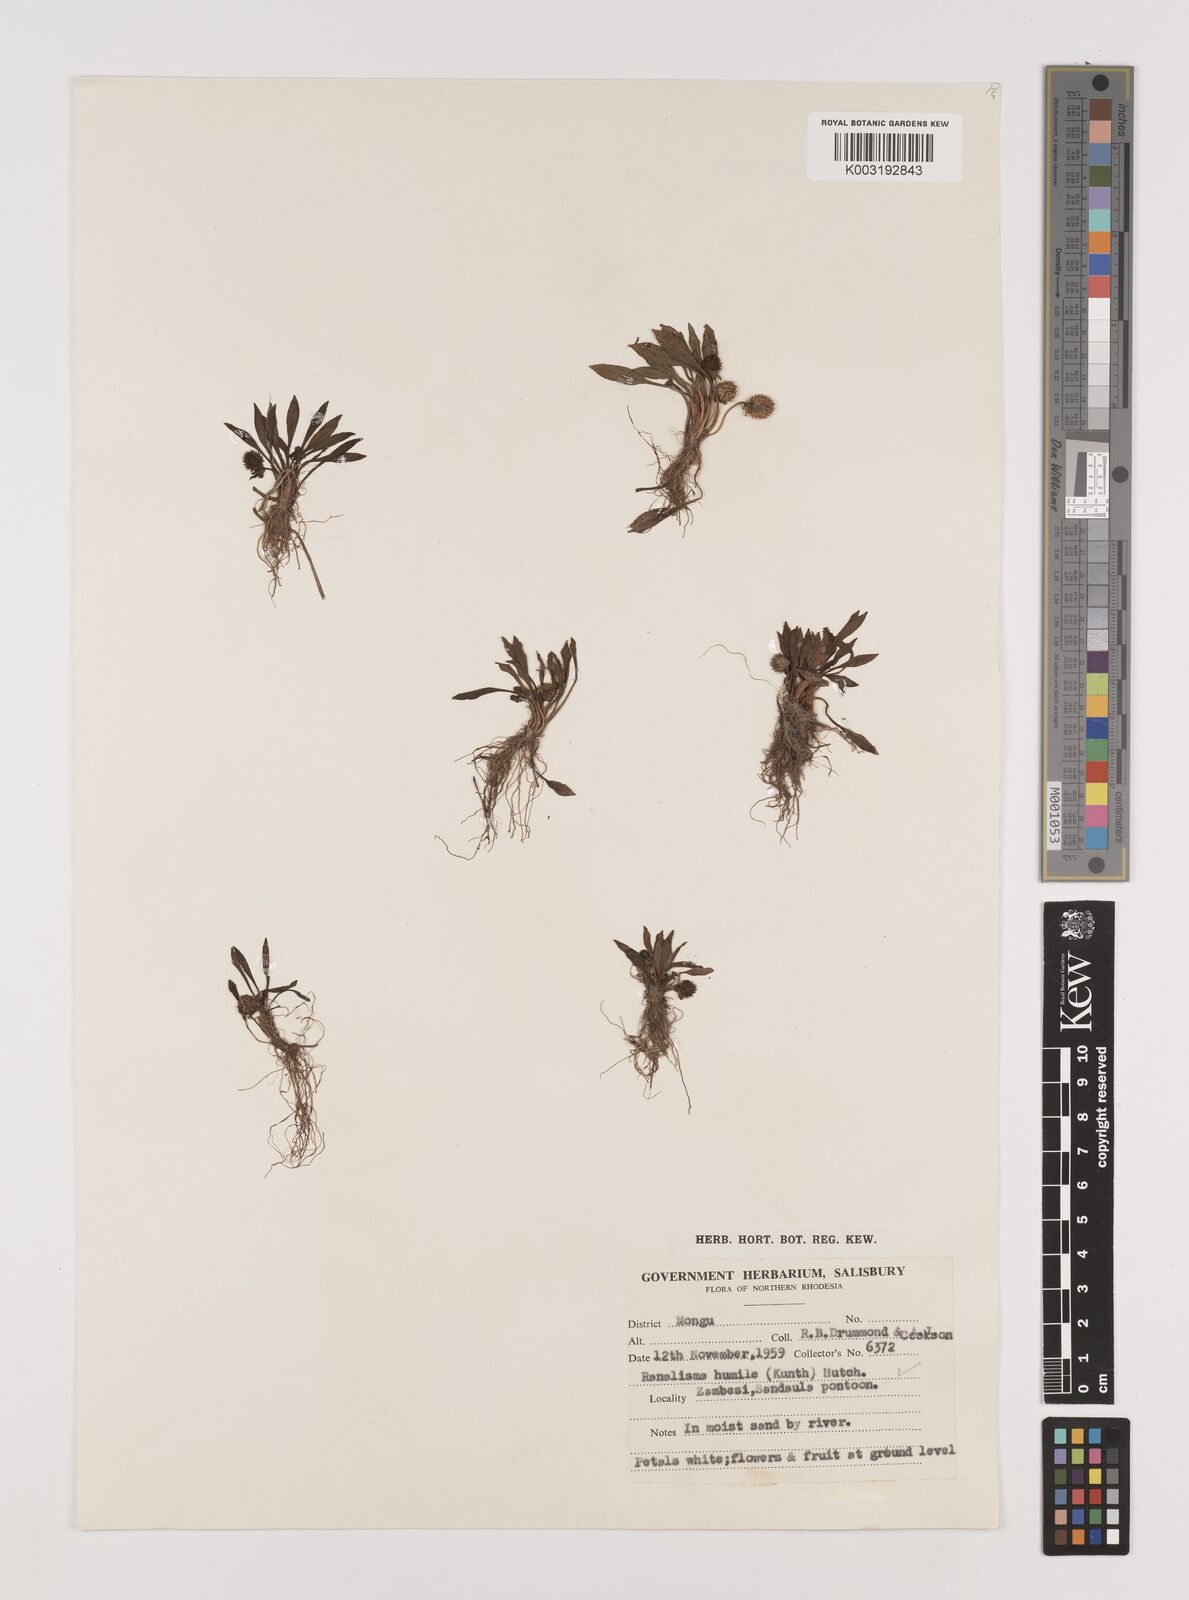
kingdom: Plantae
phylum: Tracheophyta
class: Liliopsida
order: Alismatales
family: Alismataceae
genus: Ranalisma
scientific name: Ranalisma humile
